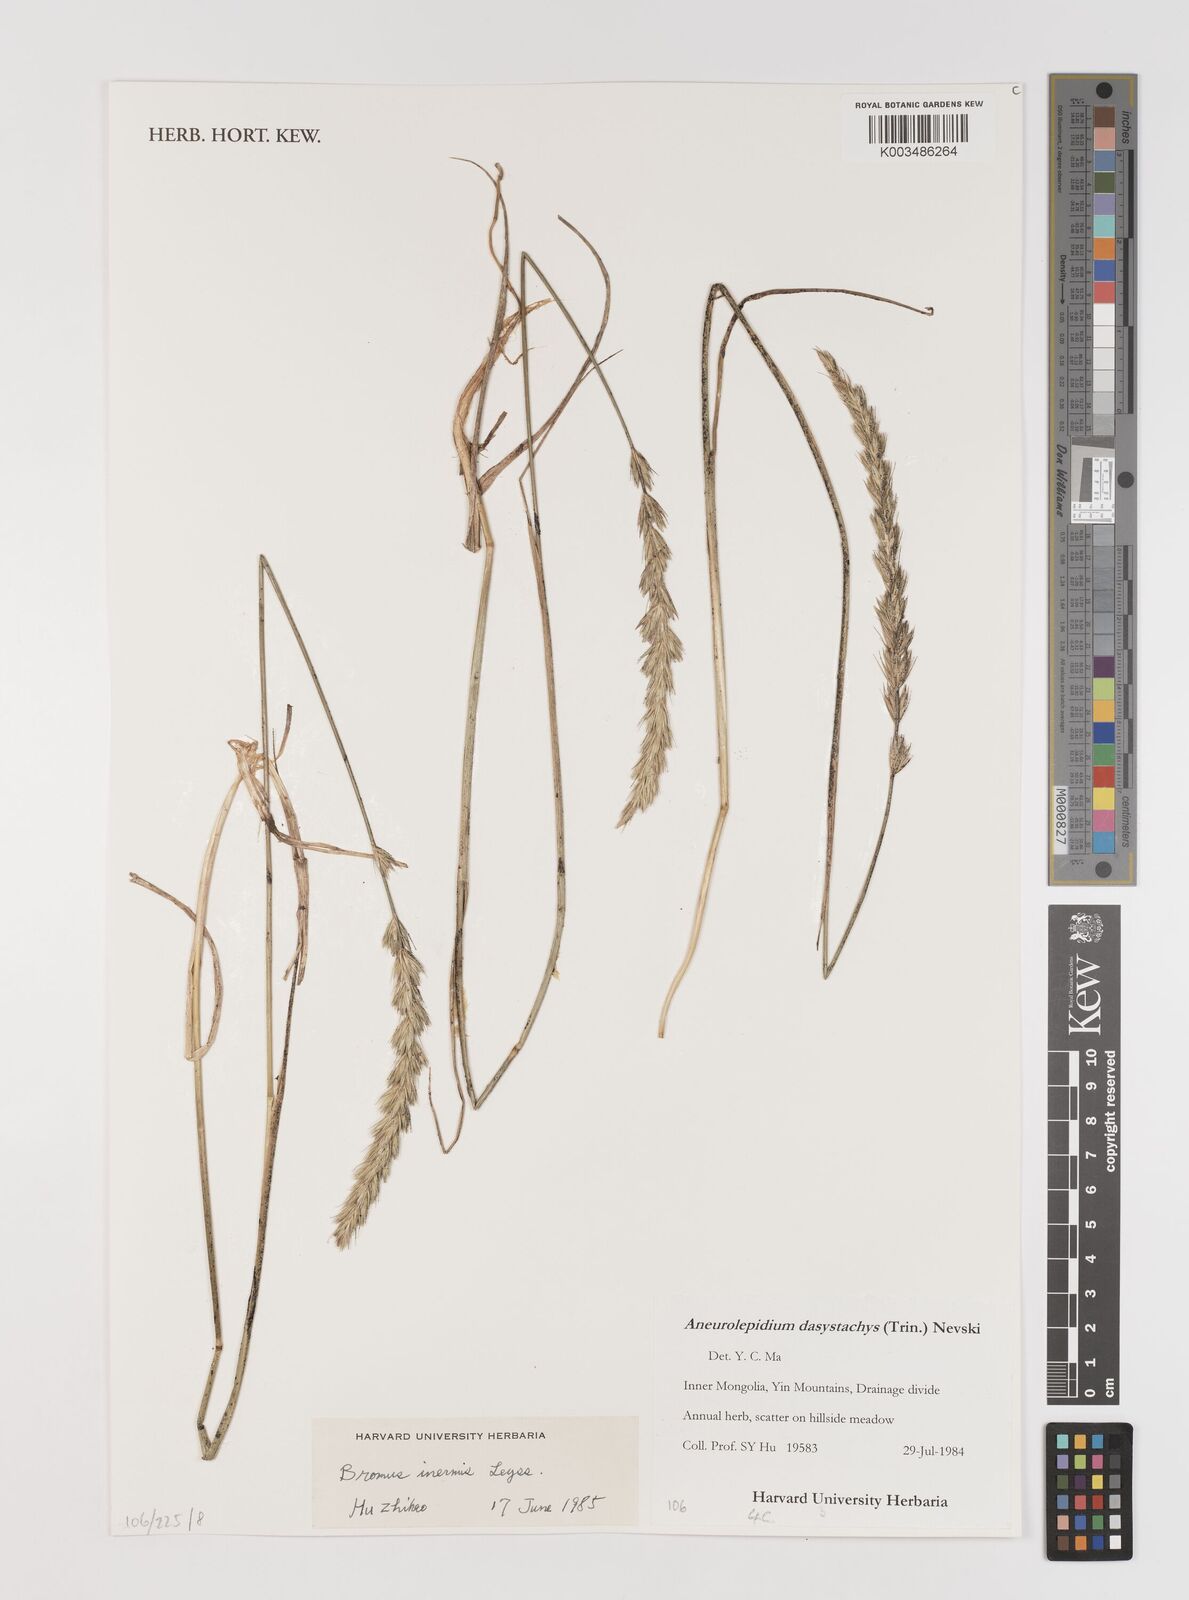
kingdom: Plantae
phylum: Tracheophyta
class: Liliopsida
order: Poales
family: Poaceae
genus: Bromus
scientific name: Bromus inermis
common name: Smooth brome
